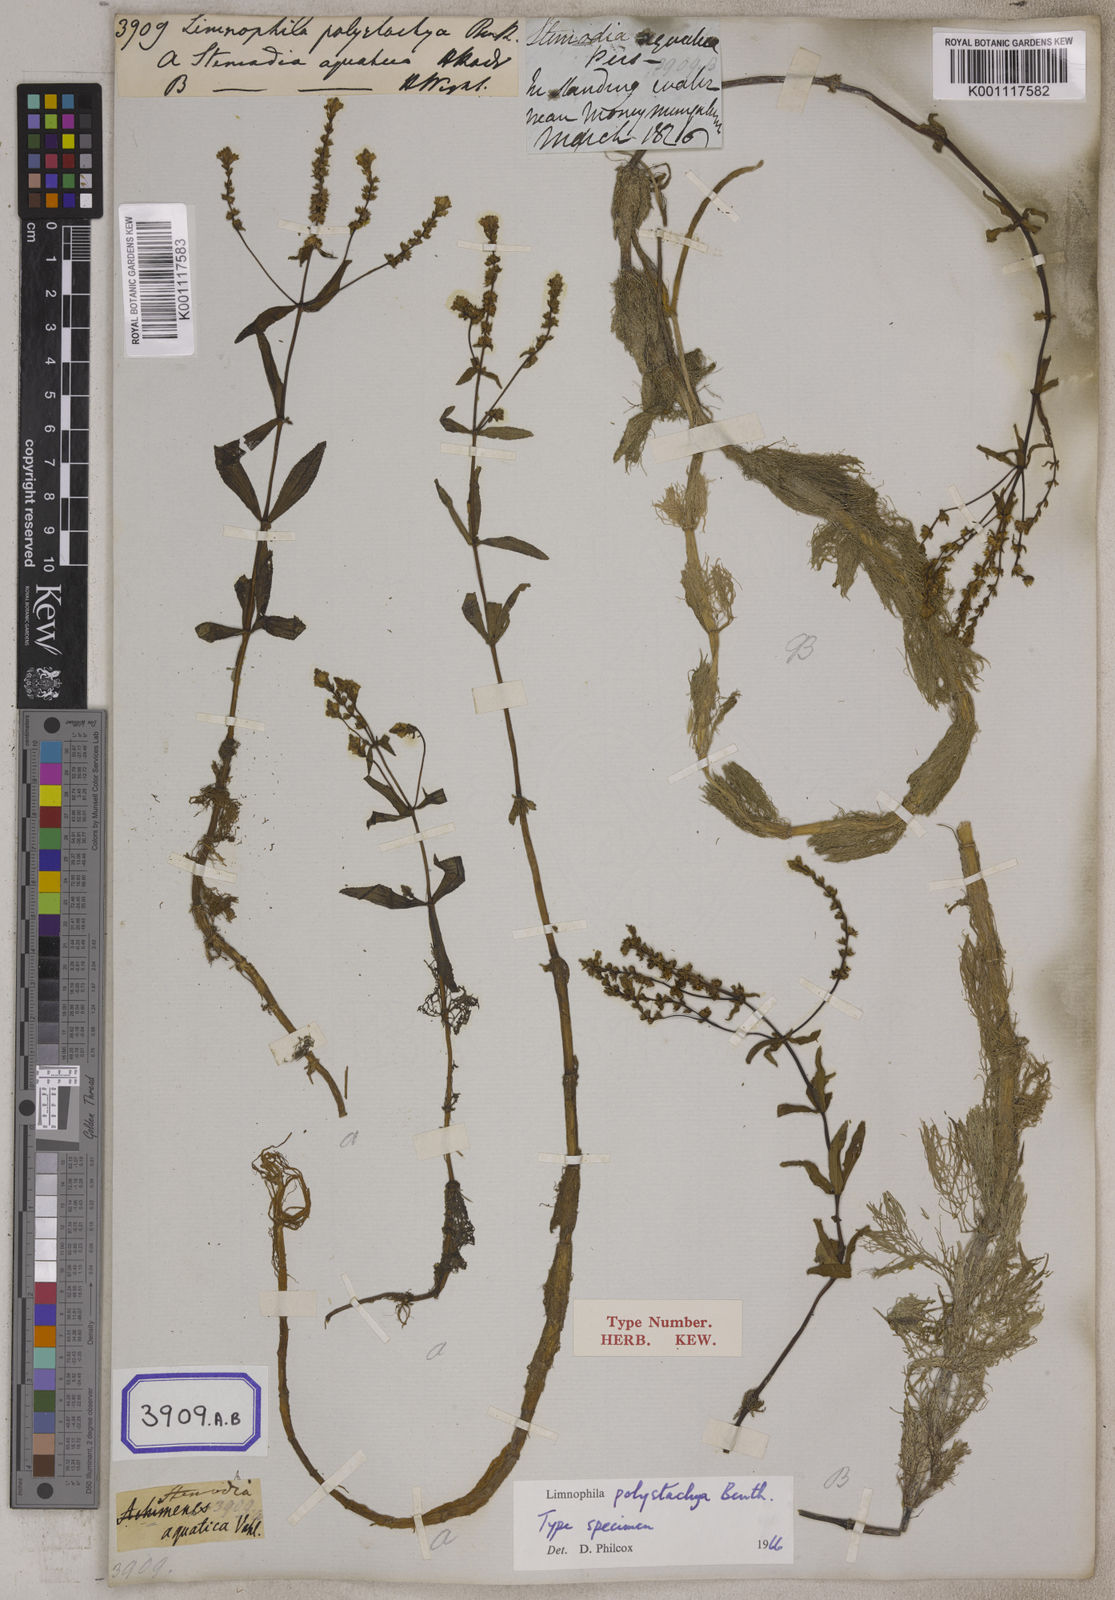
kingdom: Plantae
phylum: Tracheophyta
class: Magnoliopsida
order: Lamiales
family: Plantaginaceae
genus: Limnophila
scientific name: Limnophila polystachya
